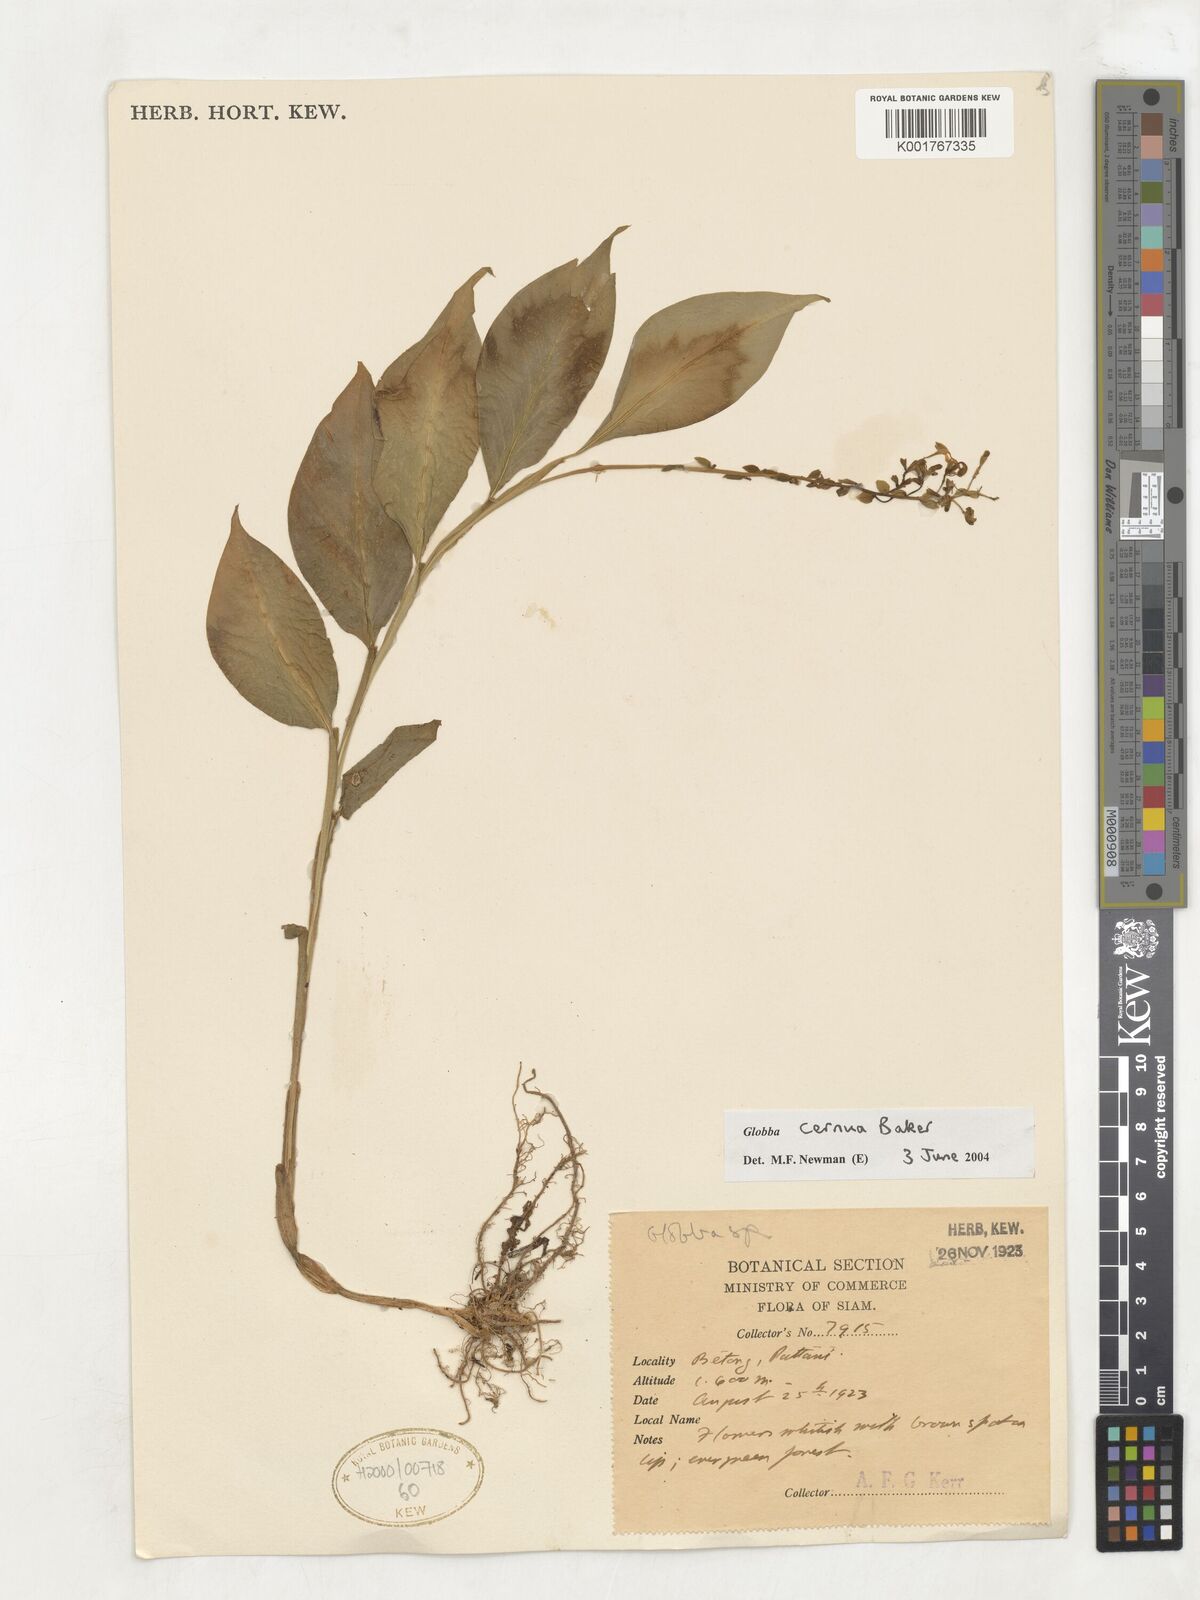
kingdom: Plantae
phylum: Tracheophyta
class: Liliopsida
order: Zingiberales
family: Zingiberaceae
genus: Globba
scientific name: Globba cernua
